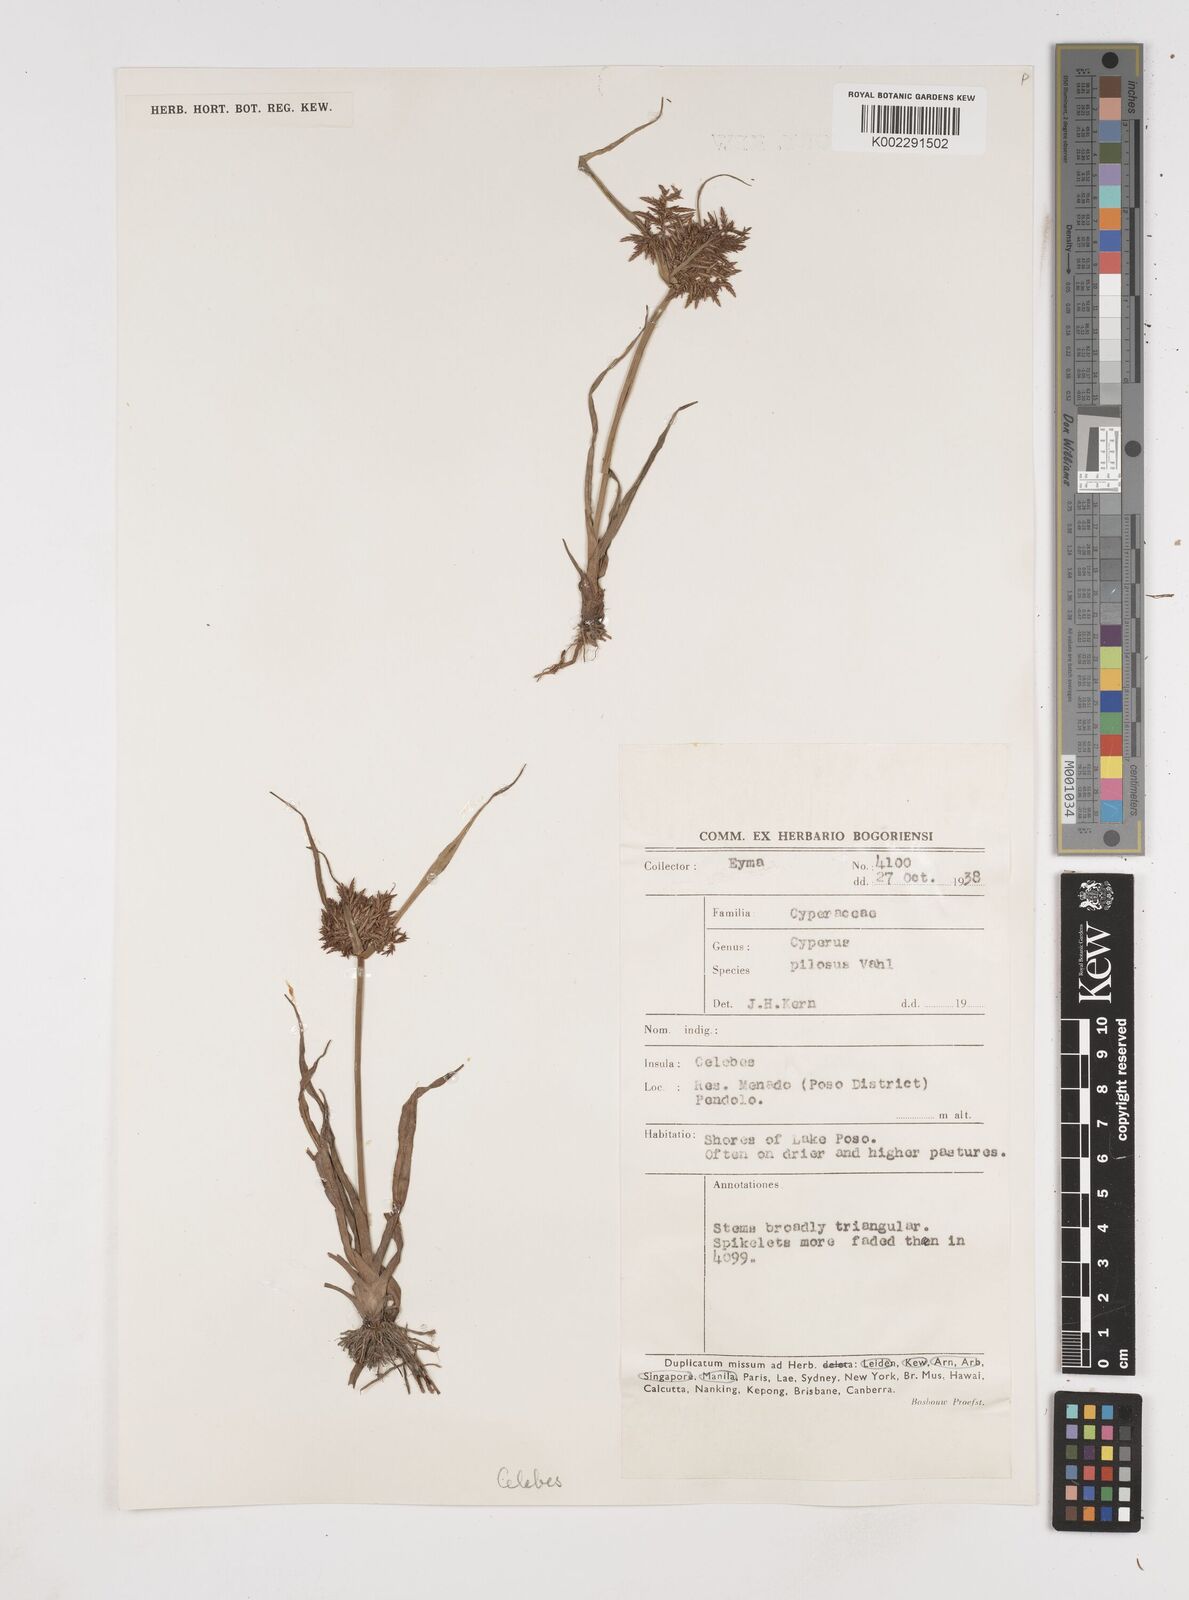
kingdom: Plantae
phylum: Tracheophyta
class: Liliopsida
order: Poales
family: Cyperaceae
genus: Cyperus
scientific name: Cyperus pilosus
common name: Fuzzy flatsedge
